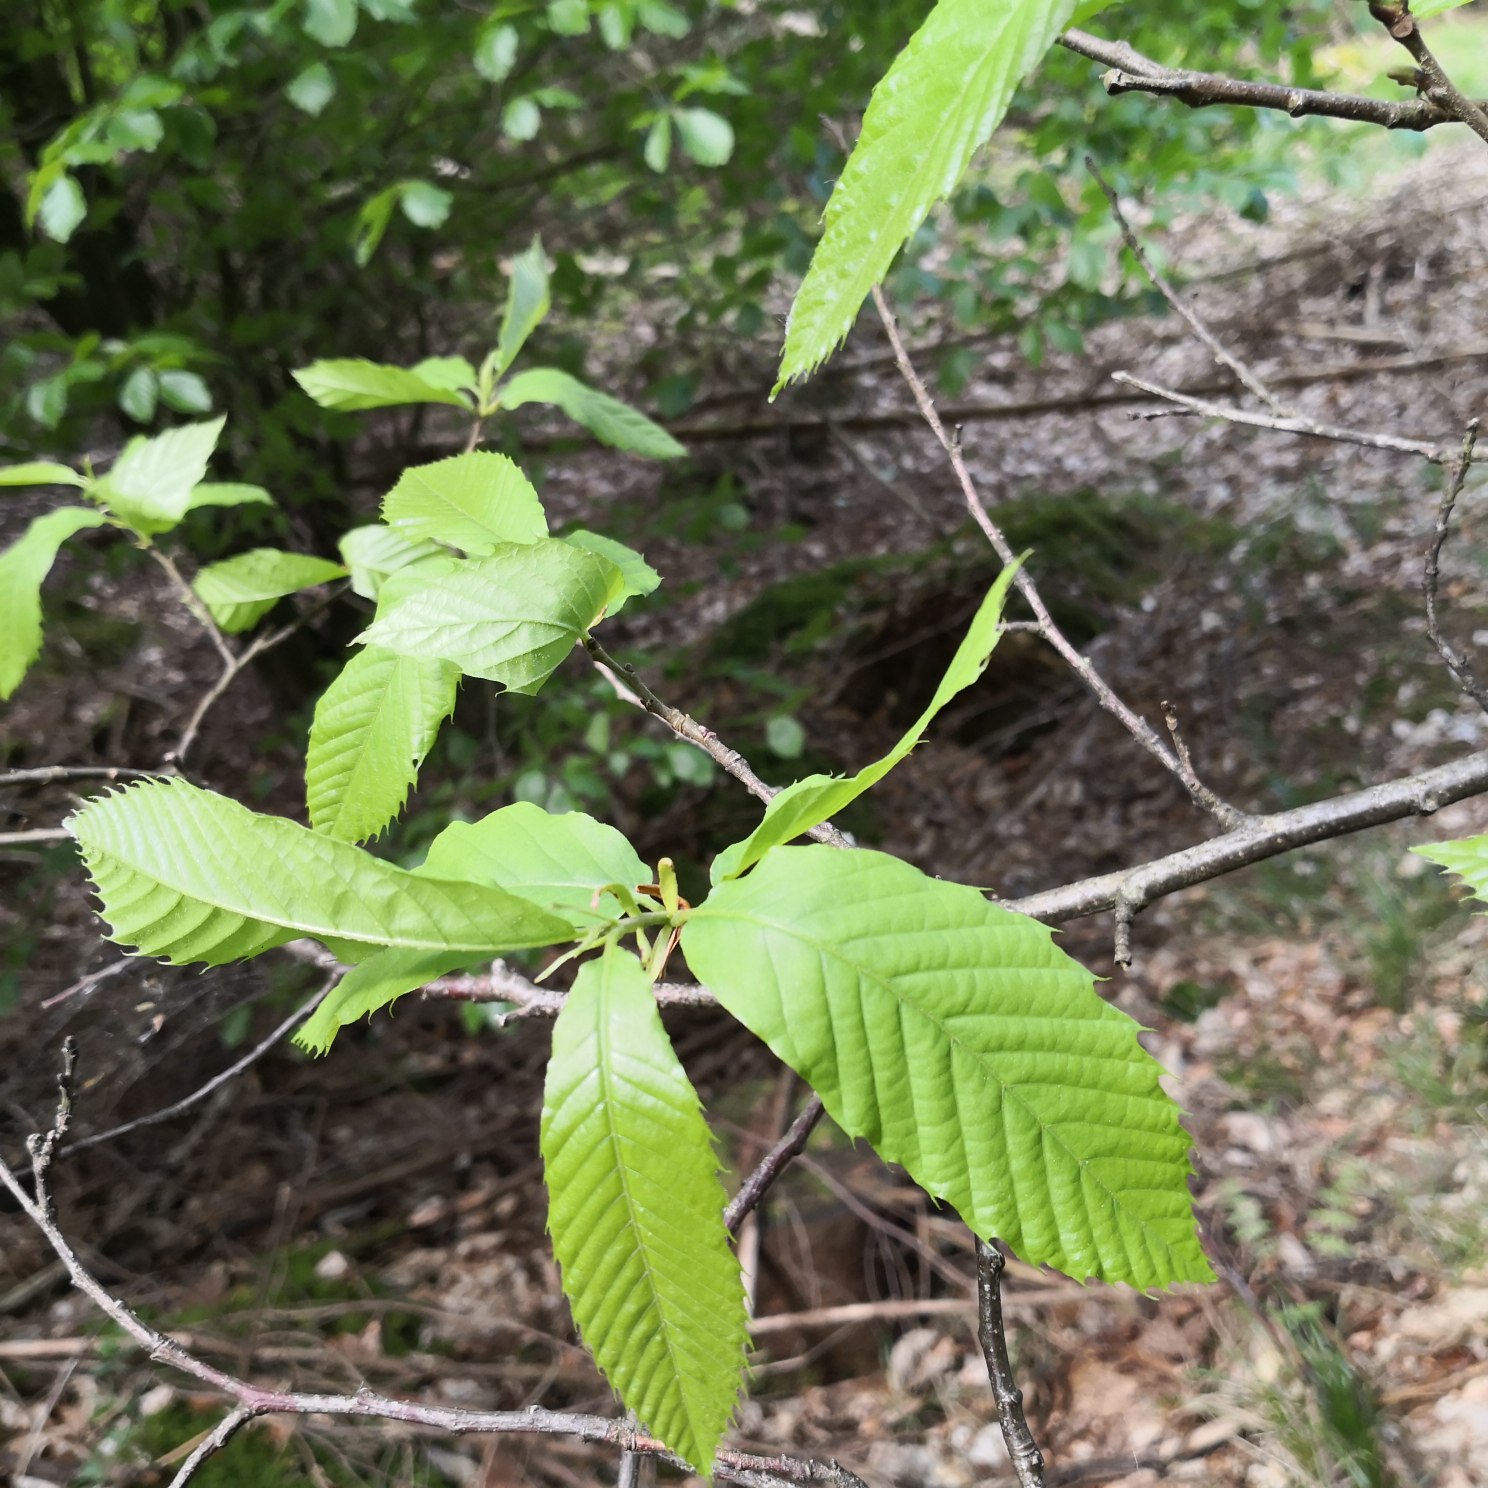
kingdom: Plantae
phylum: Tracheophyta
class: Magnoliopsida
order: Fagales
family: Fagaceae
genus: Castanea
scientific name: Castanea sativa
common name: Ægte kastanie
